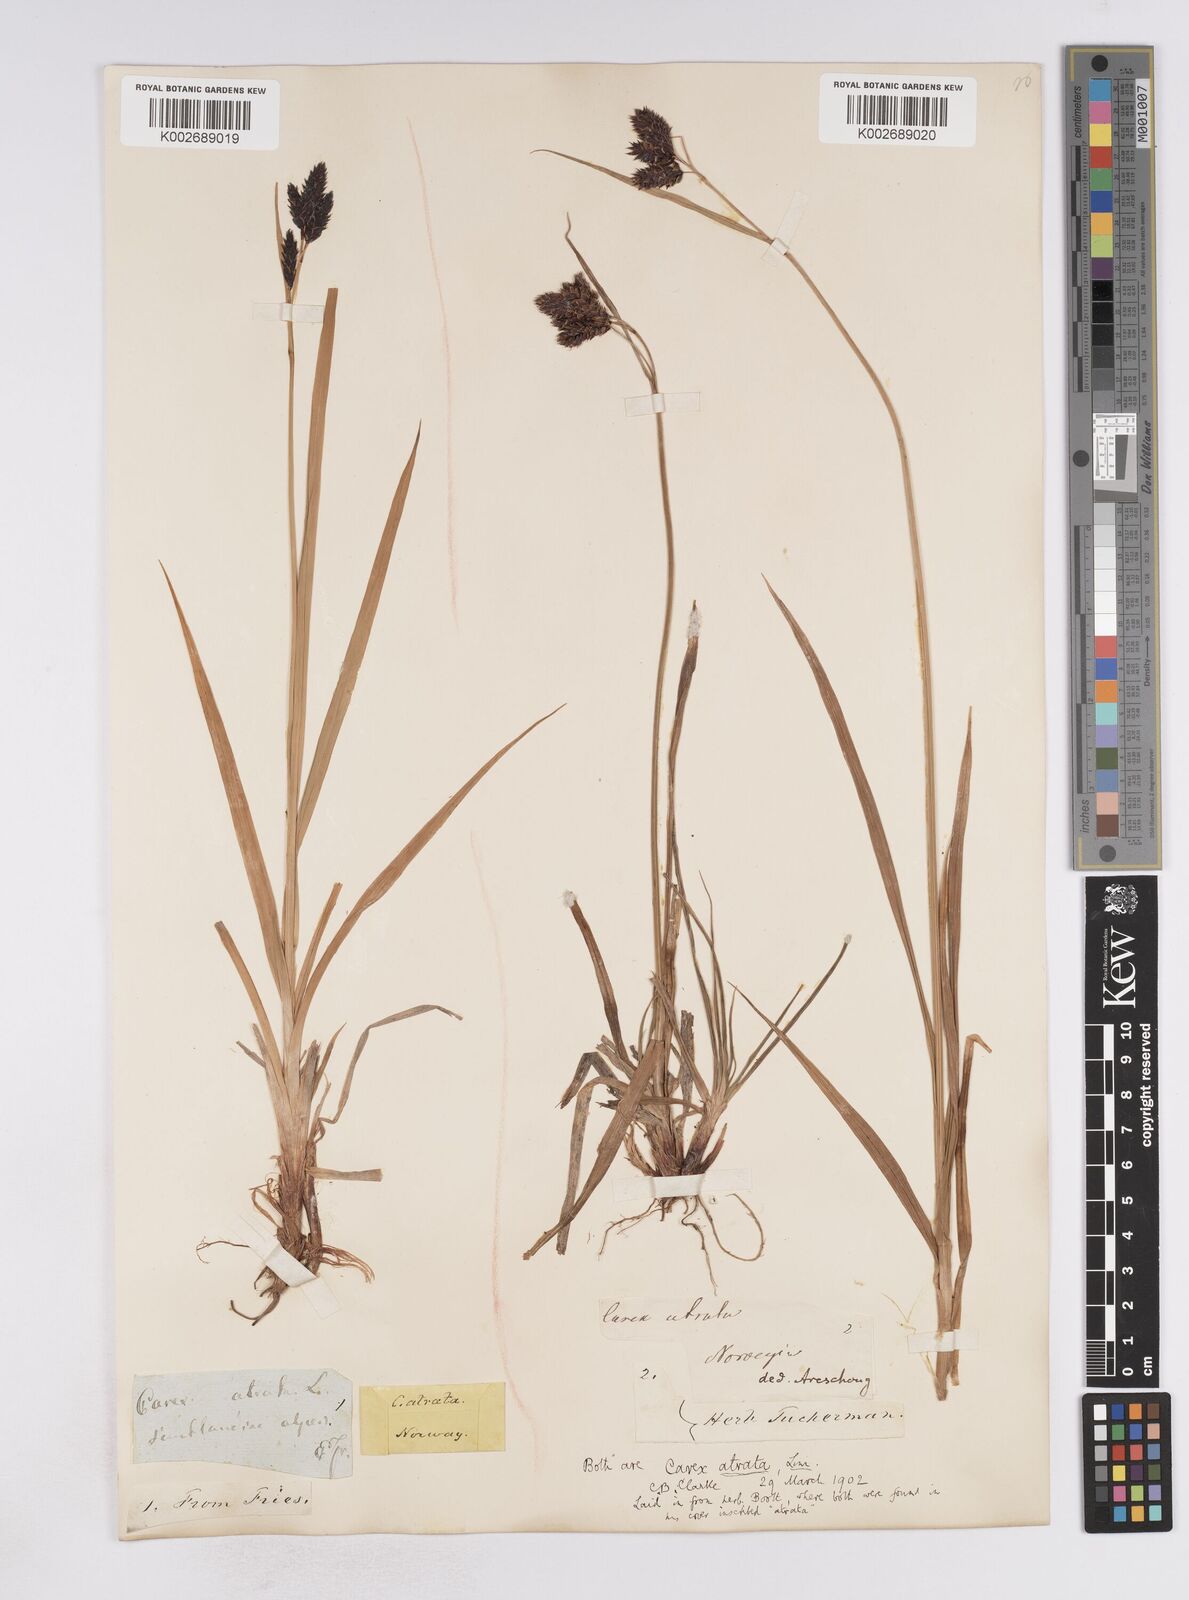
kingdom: Plantae
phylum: Tracheophyta
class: Liliopsida
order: Poales
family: Cyperaceae
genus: Carex
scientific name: Carex atrata
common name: Black alpine sedge
